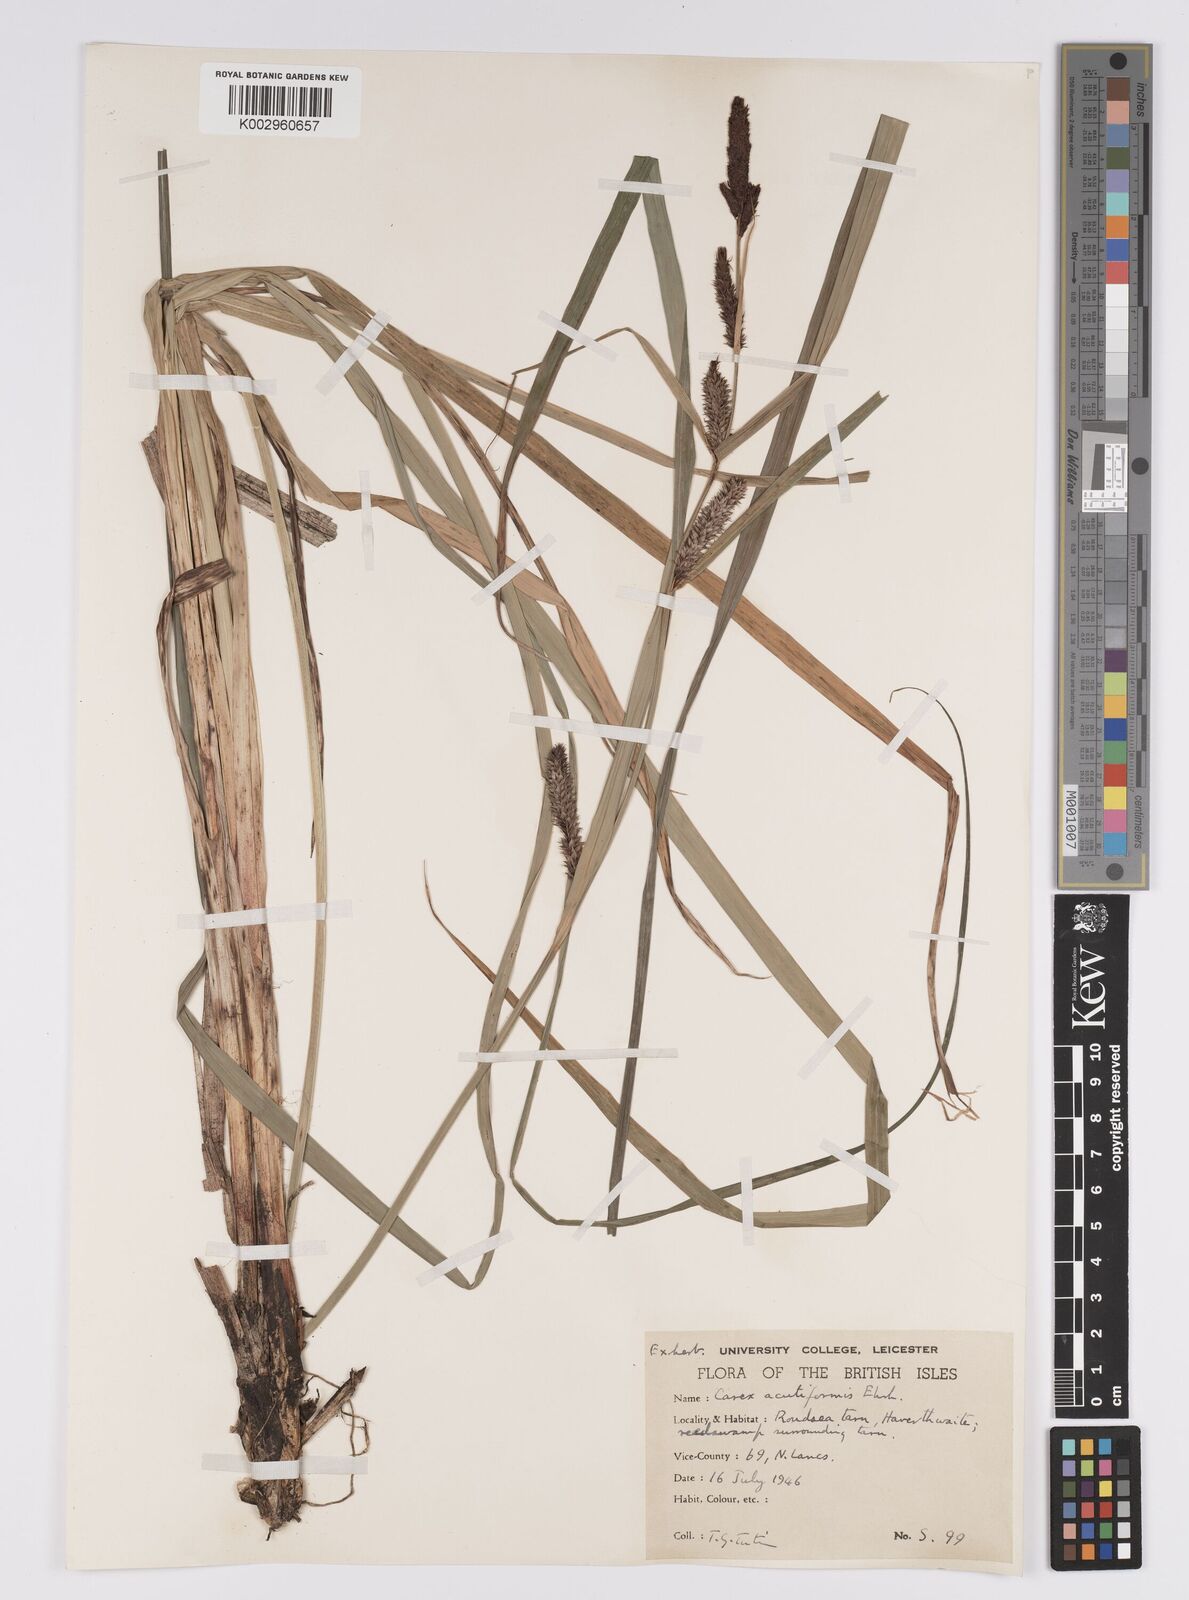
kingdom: Plantae
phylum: Tracheophyta
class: Liliopsida
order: Poales
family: Cyperaceae
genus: Carex
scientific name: Carex acutiformis
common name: Lesser pond-sedge
